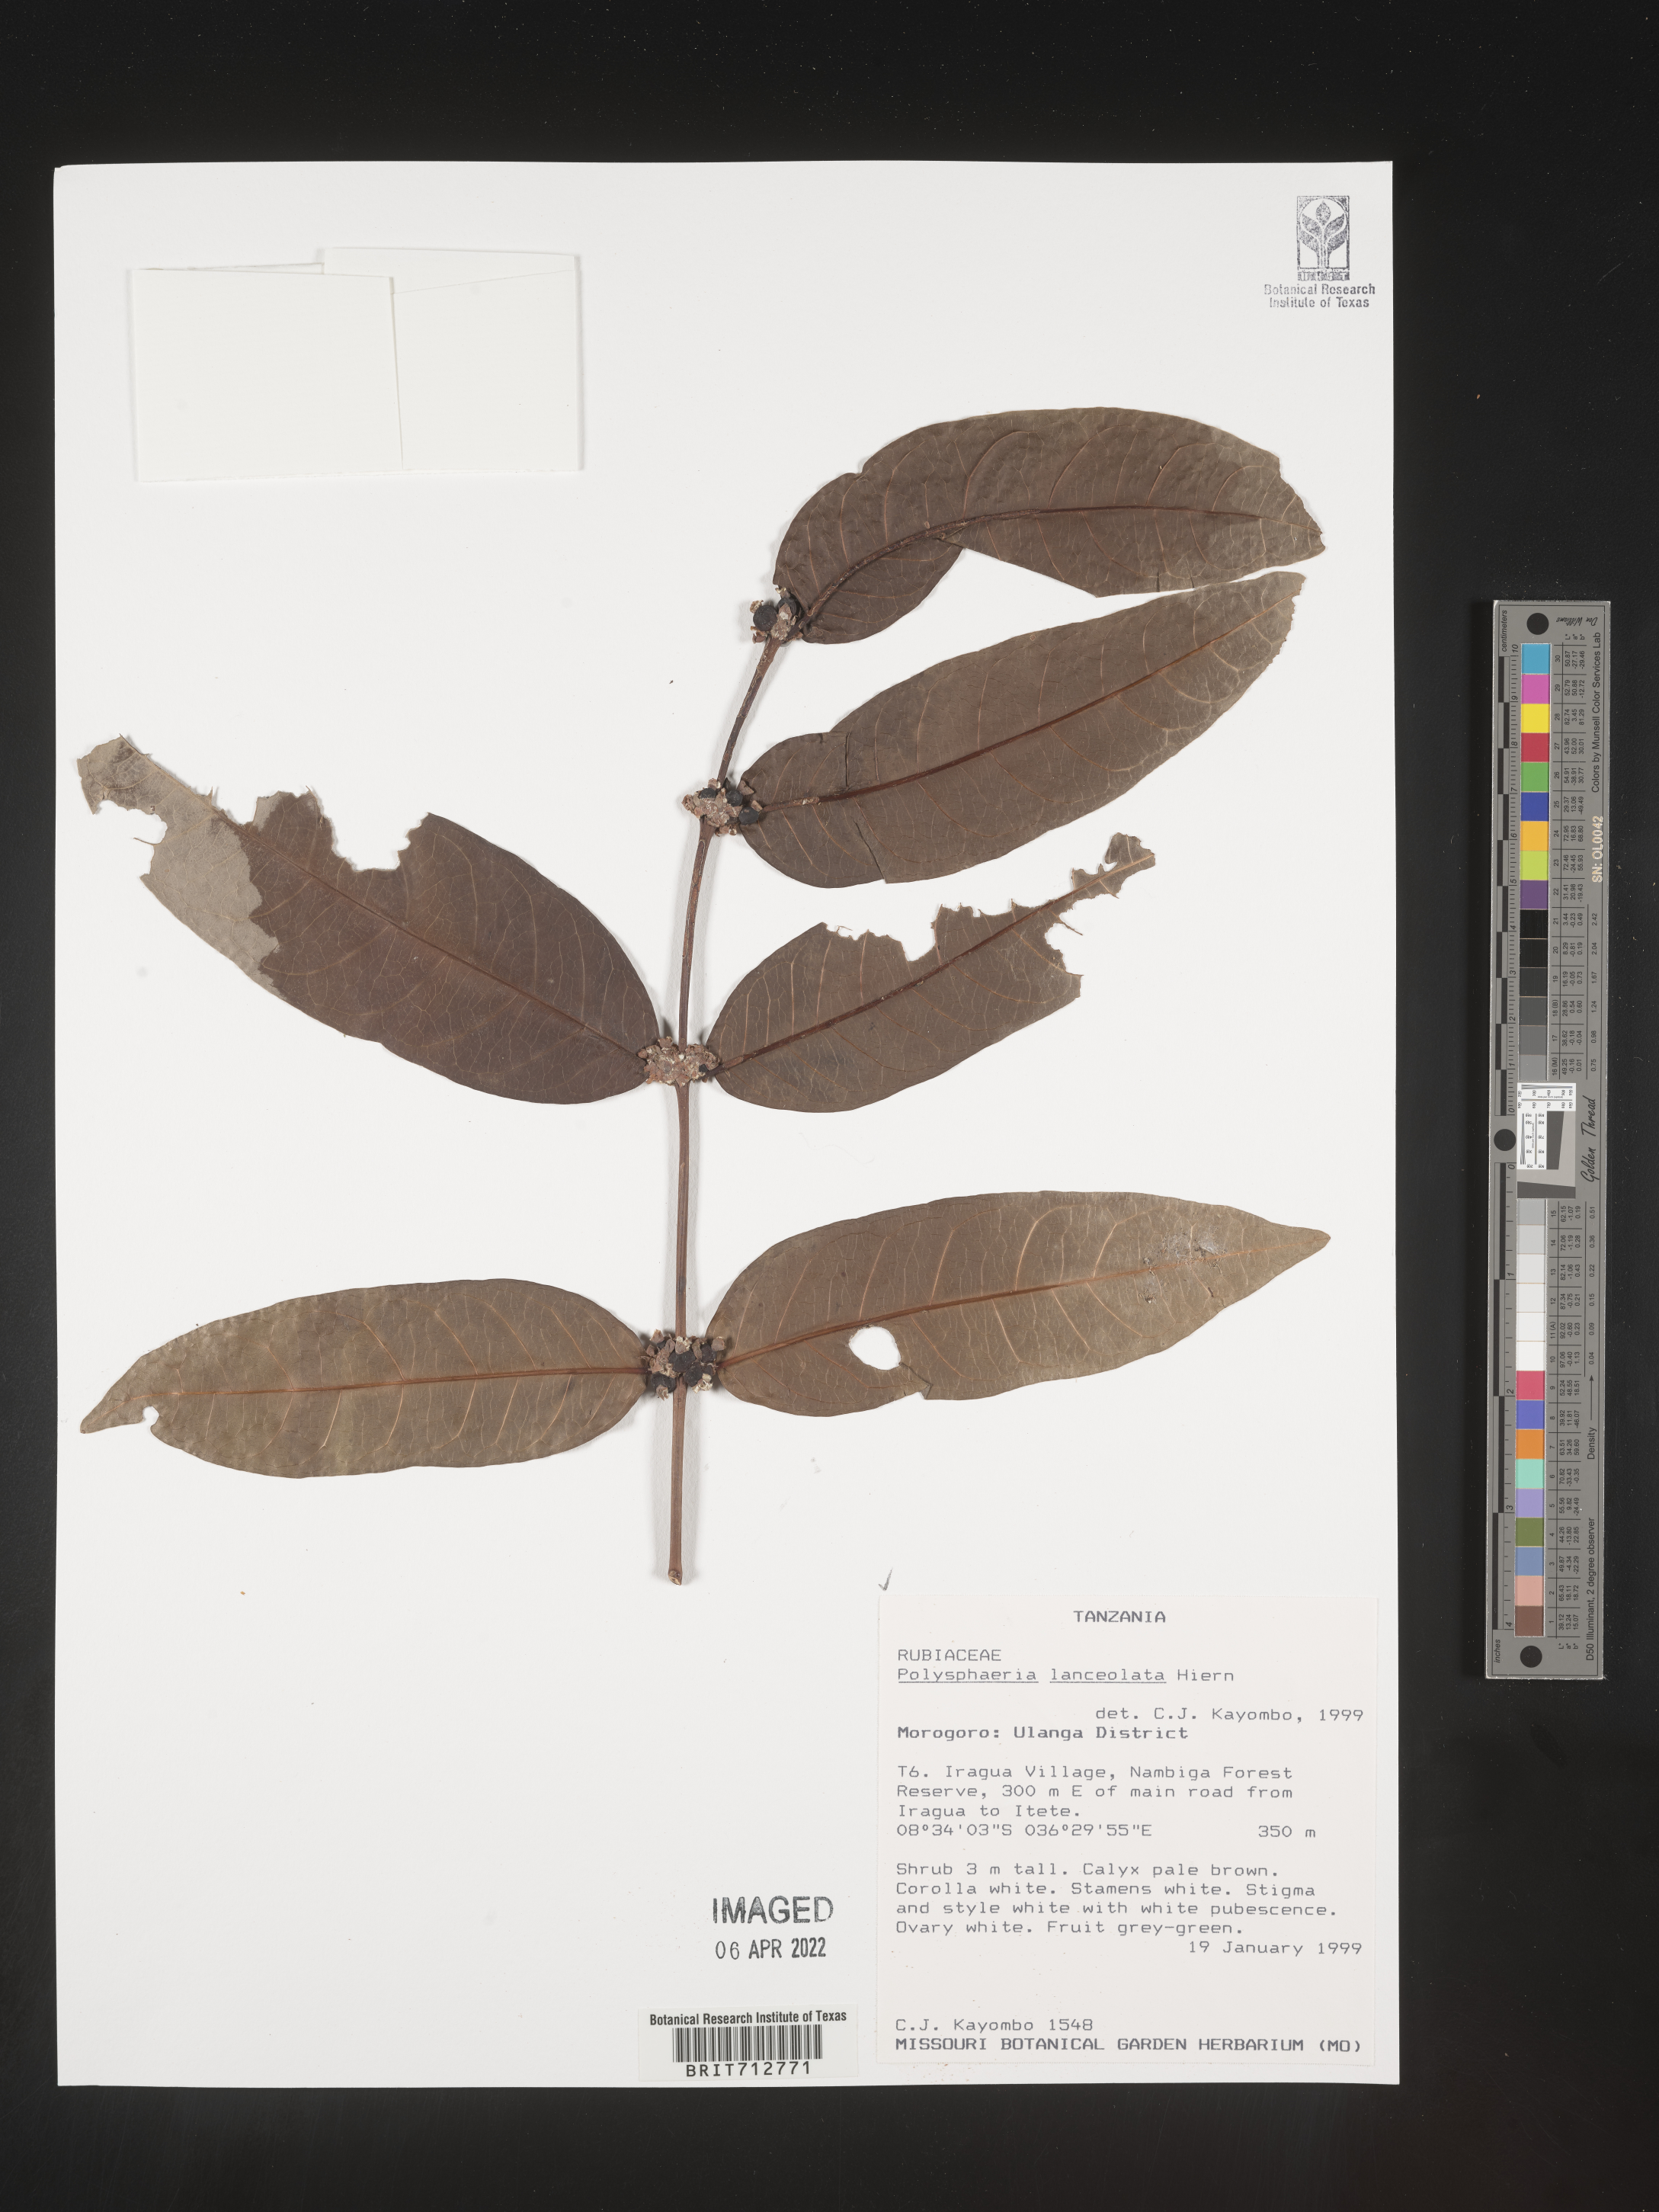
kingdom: Plantae
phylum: Tracheophyta
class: Magnoliopsida
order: Gentianales
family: Rubiaceae
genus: Polysphaeria
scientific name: Polysphaeria
